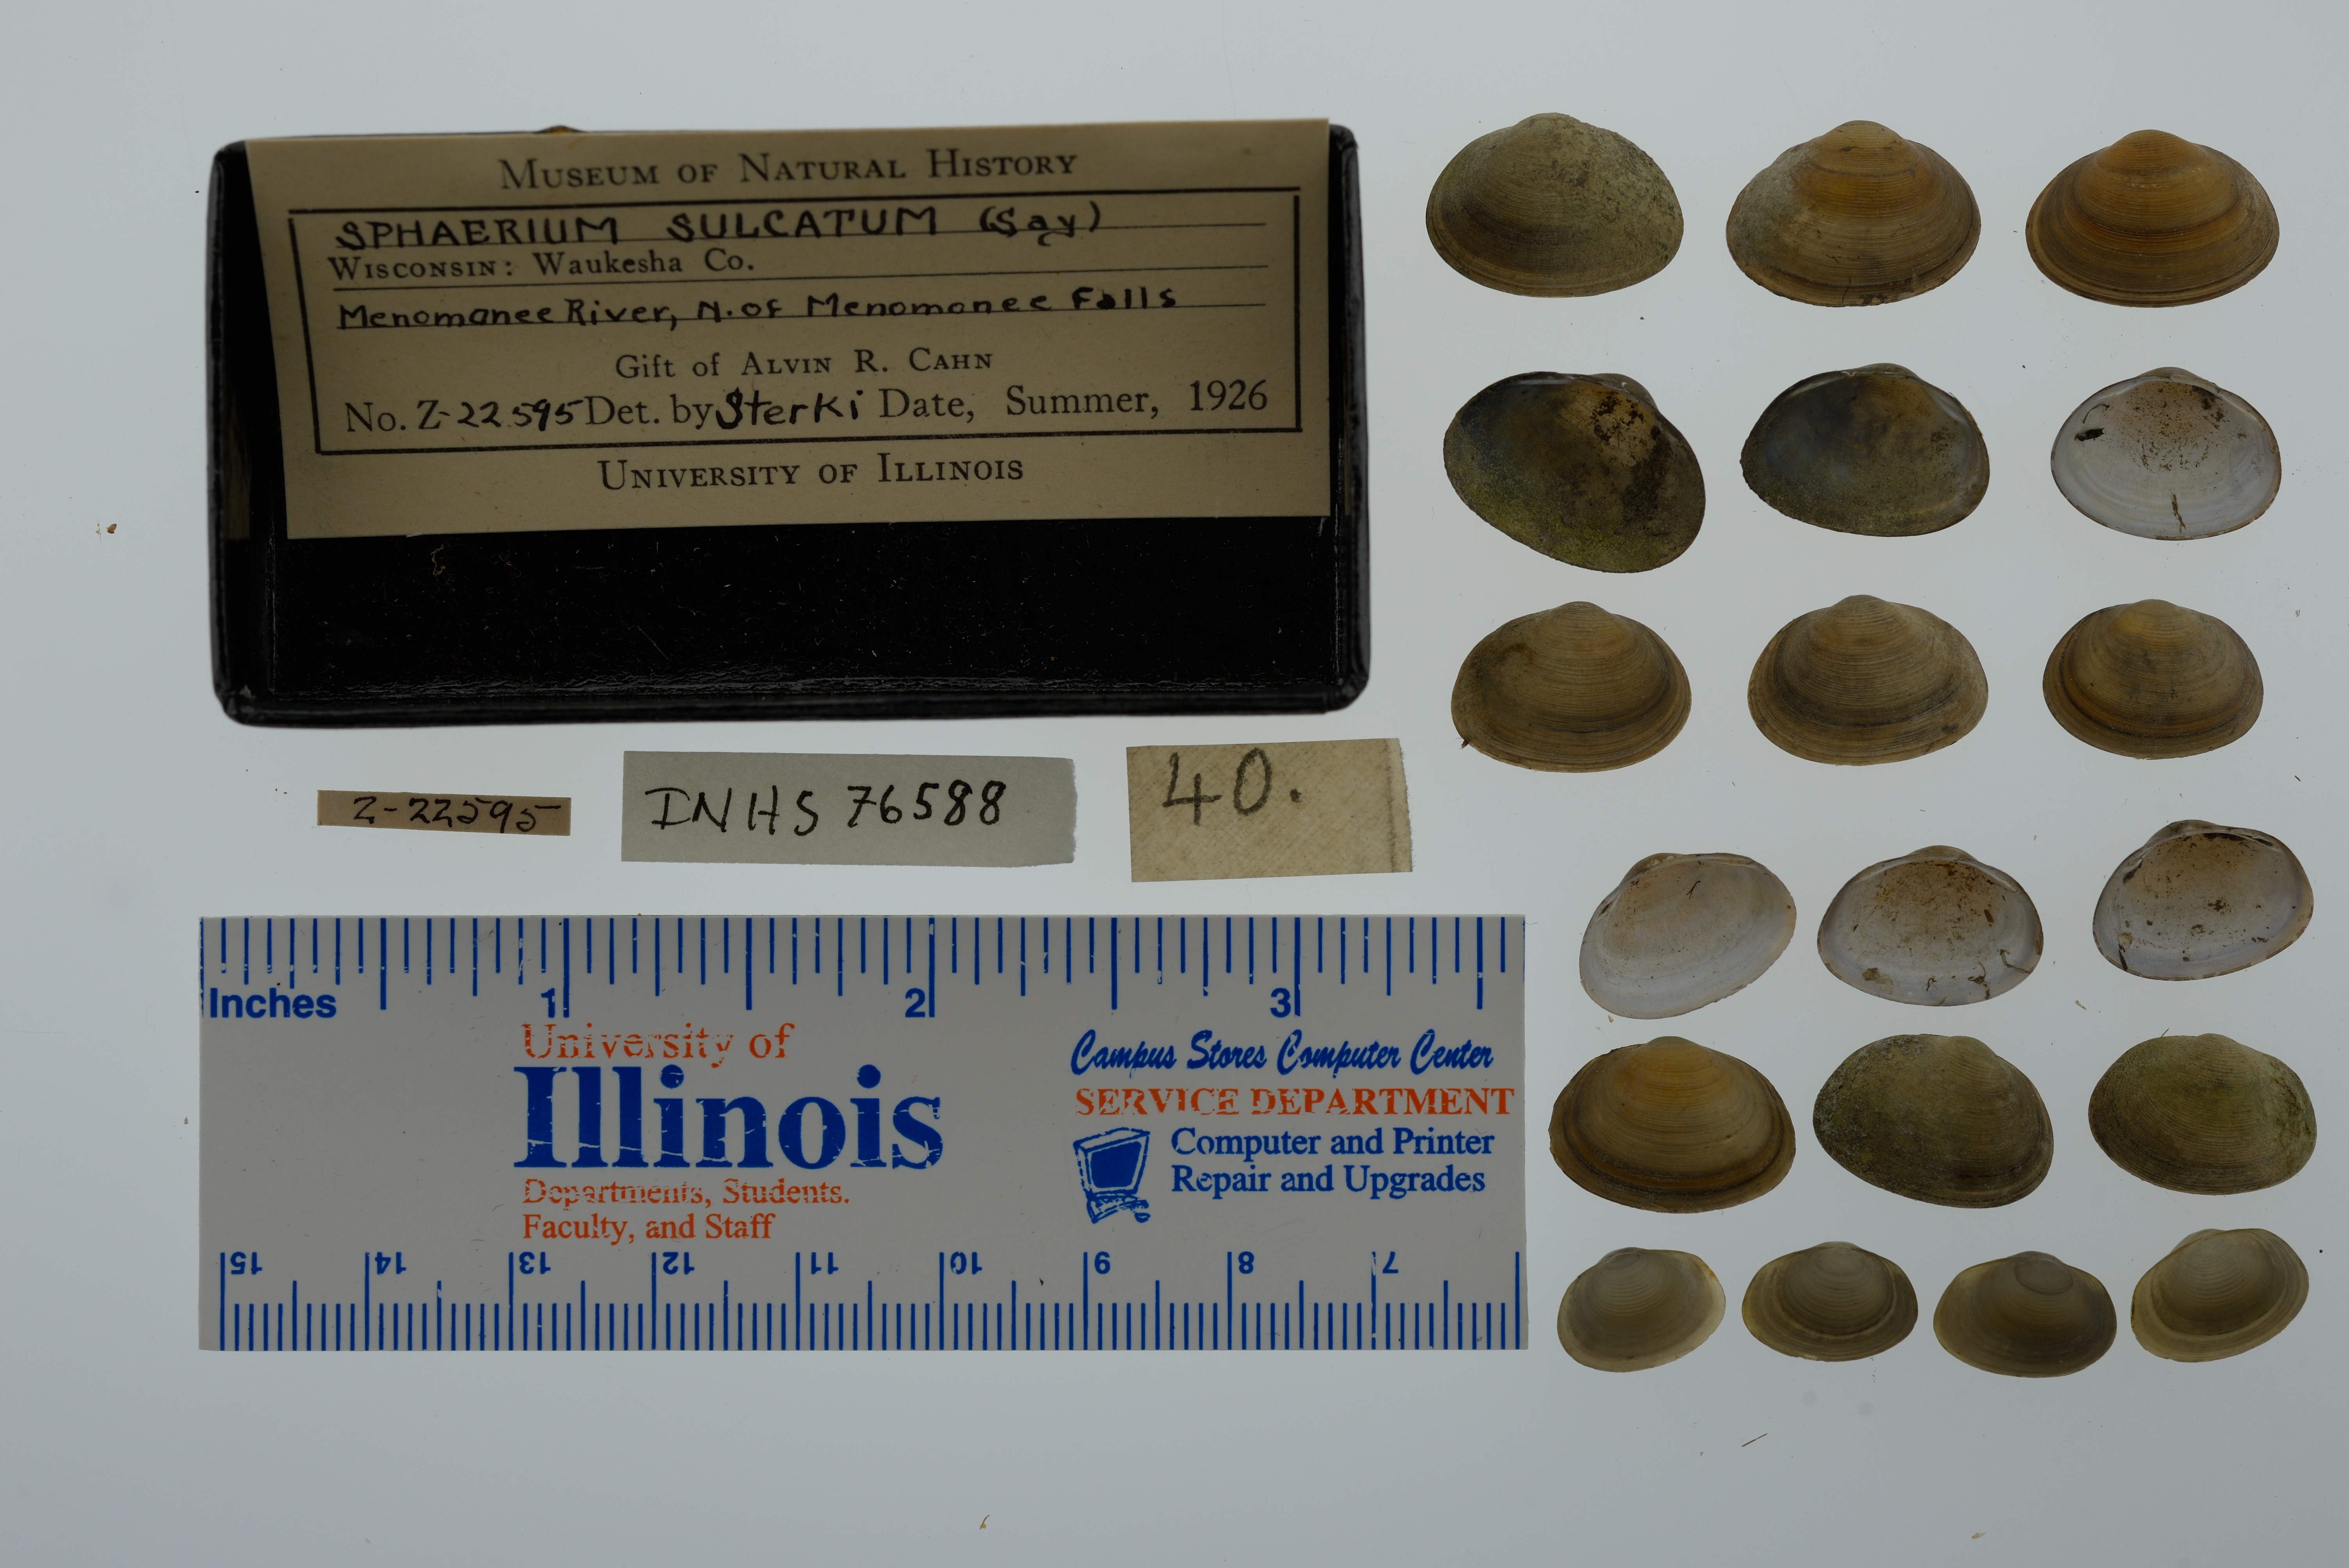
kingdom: Animalia
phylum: Mollusca
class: Bivalvia
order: Sphaeriida
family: Sphaeriidae
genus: Sphaerium
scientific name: Sphaerium simile
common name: Grooved fingernailclam
